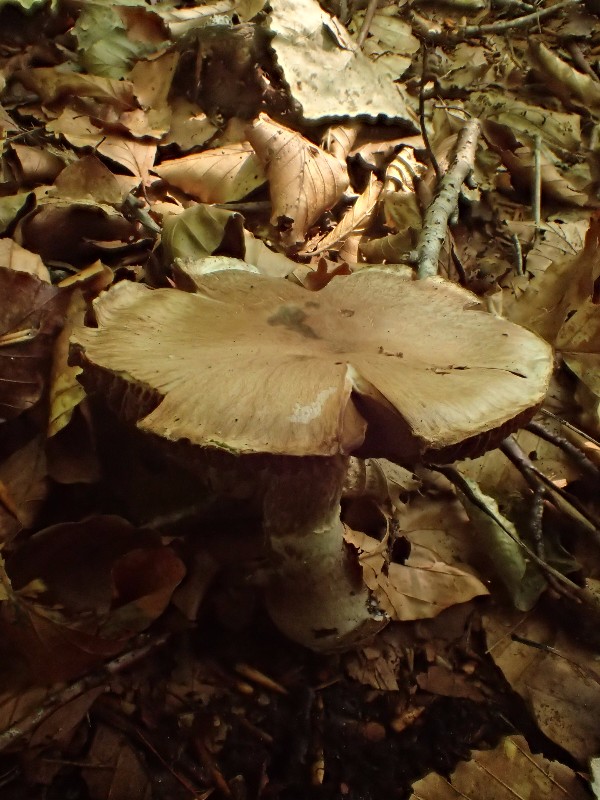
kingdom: Fungi
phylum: Basidiomycota
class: Agaricomycetes
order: Agaricales
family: Cortinariaceae
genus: Cortinarius
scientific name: Cortinarius torvus
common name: champignonagtig slørhat
